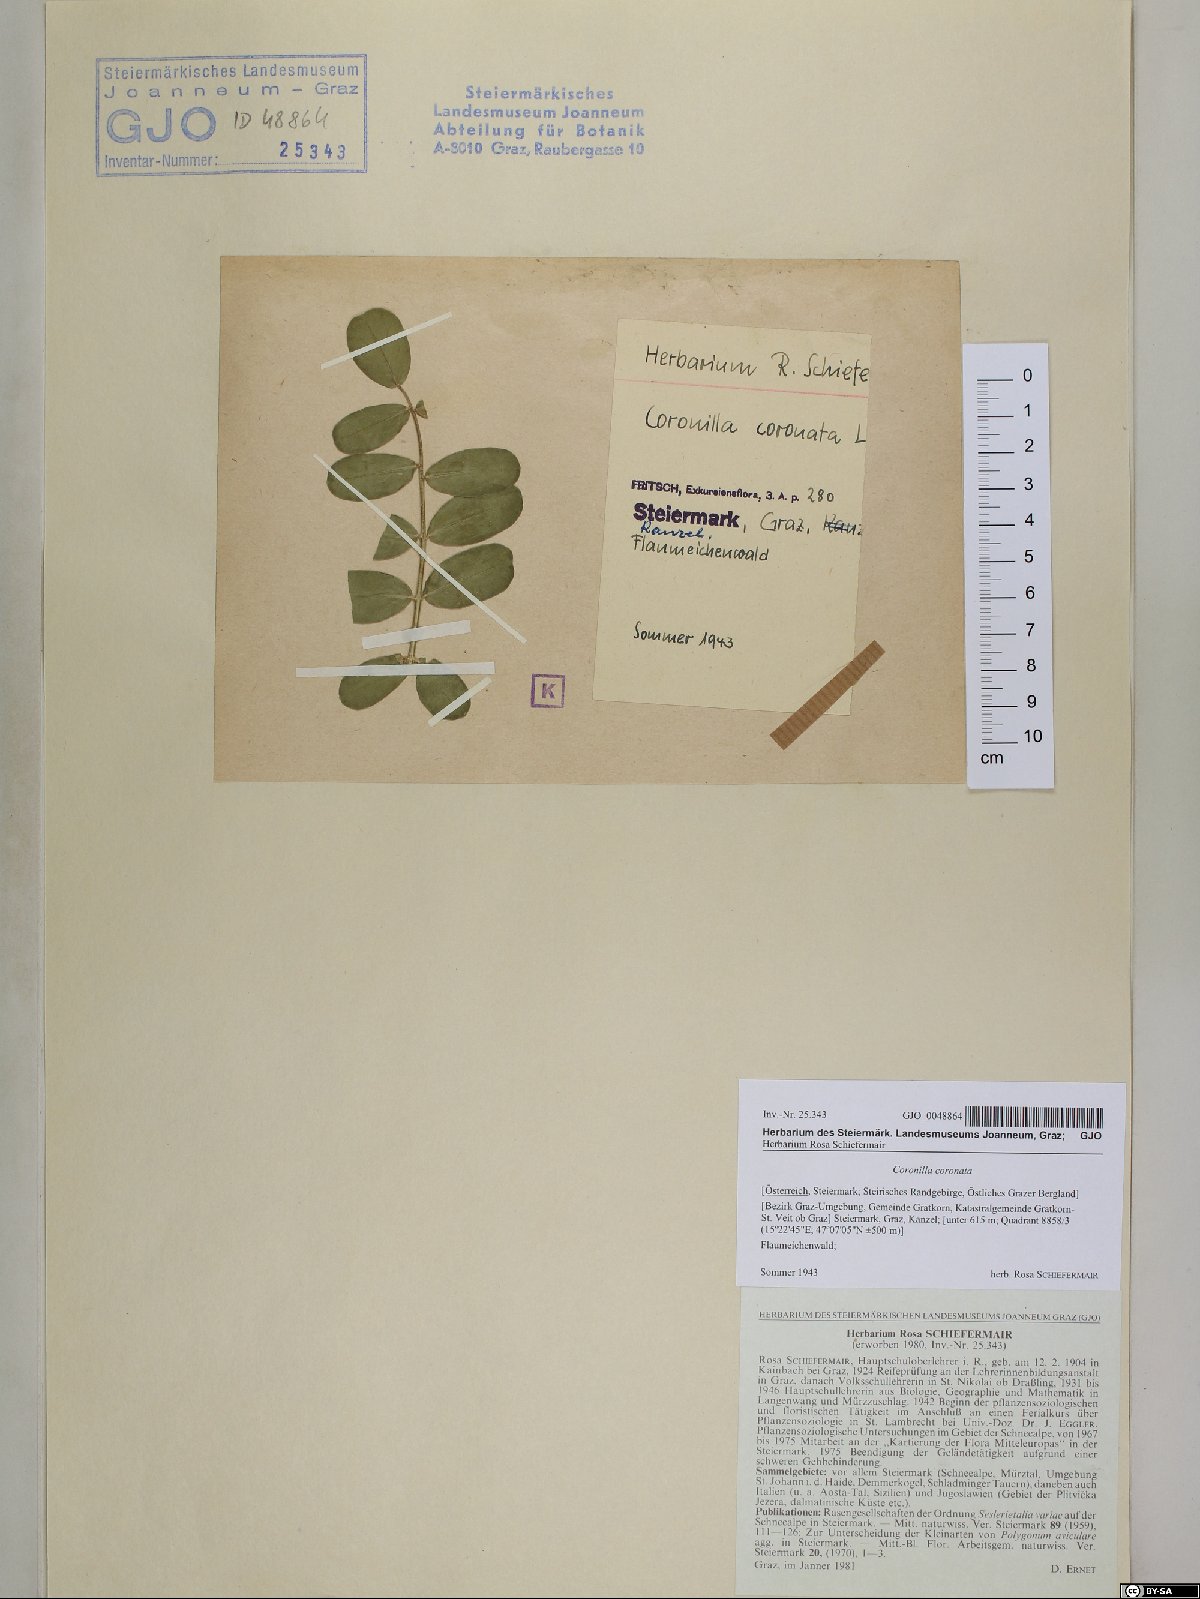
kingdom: Plantae
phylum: Tracheophyta
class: Magnoliopsida
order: Fabales
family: Fabaceae
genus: Coronilla
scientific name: Coronilla coronata
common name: Scorpion-vetch
